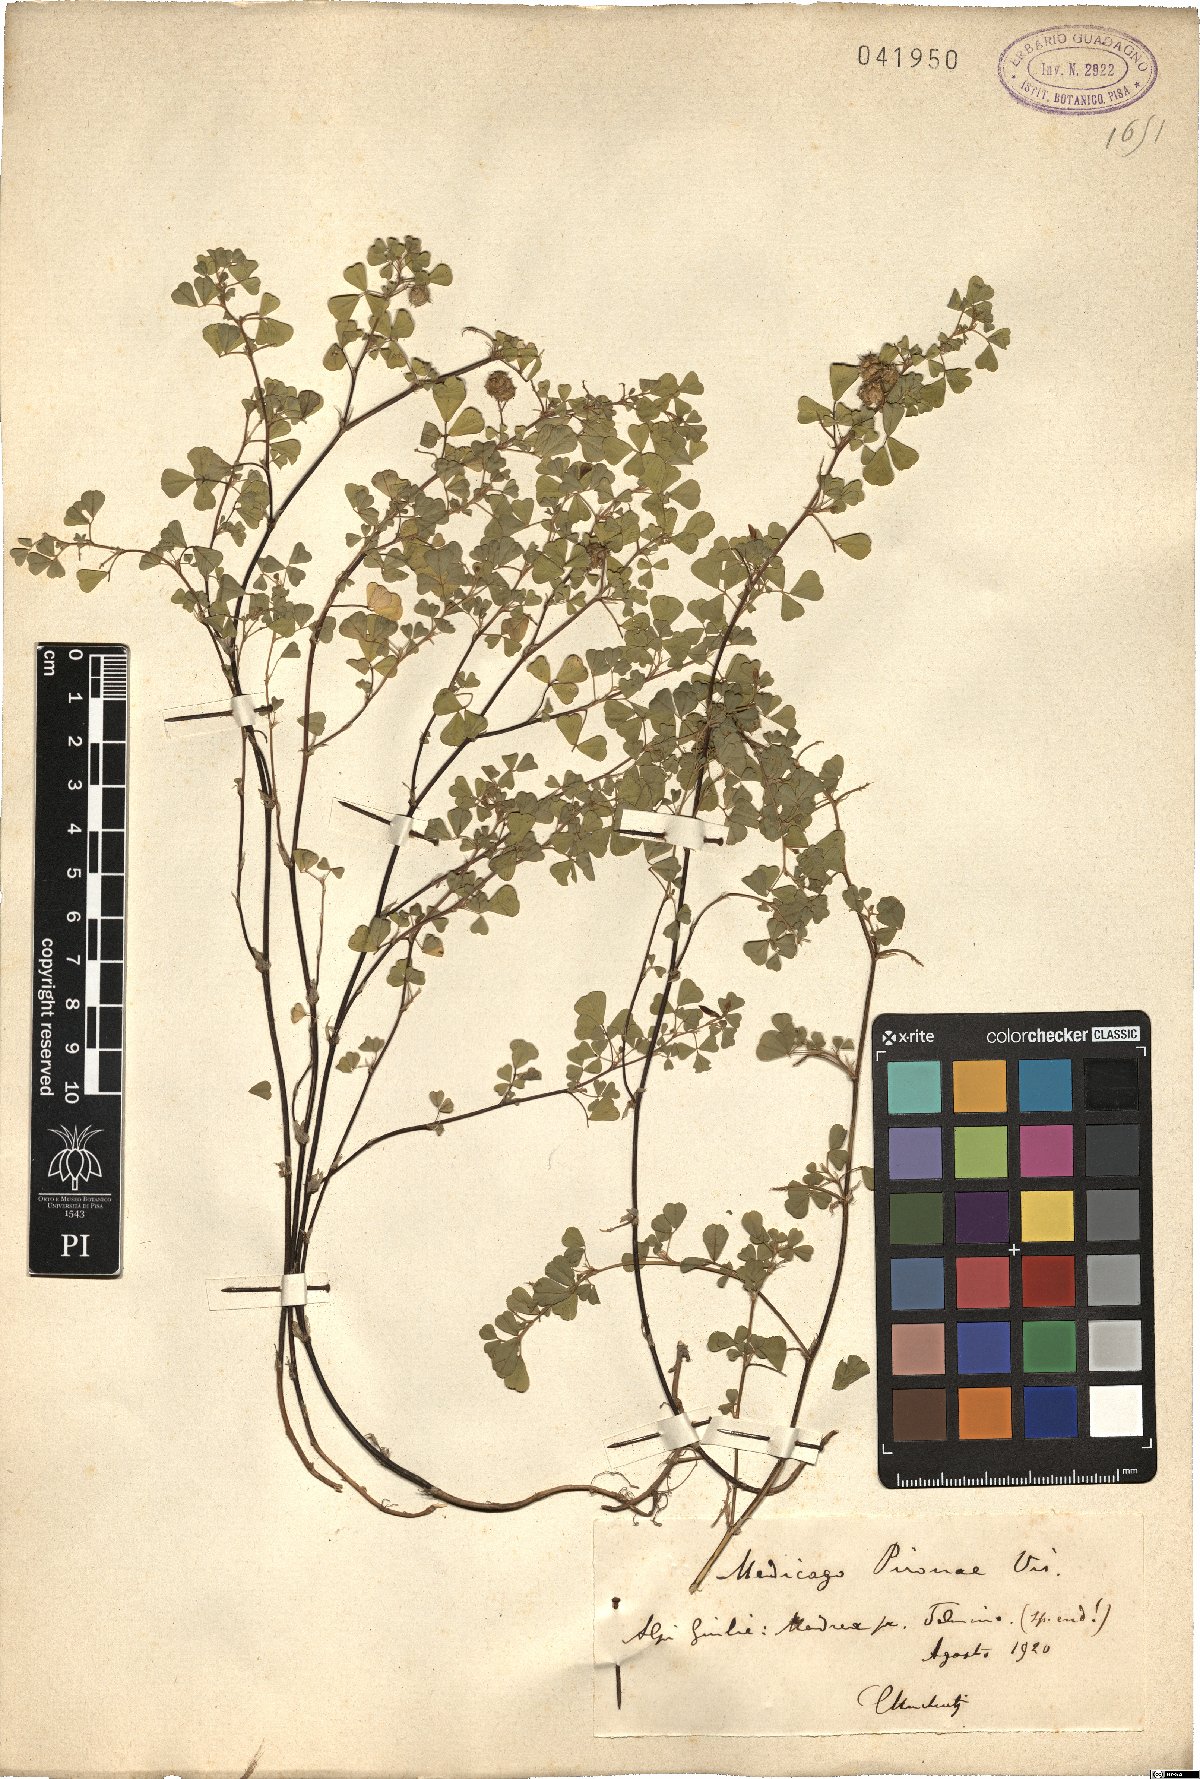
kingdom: Plantae
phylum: Tracheophyta
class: Magnoliopsida
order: Fabales
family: Fabaceae
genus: Medicago
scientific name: Medicago pironae
